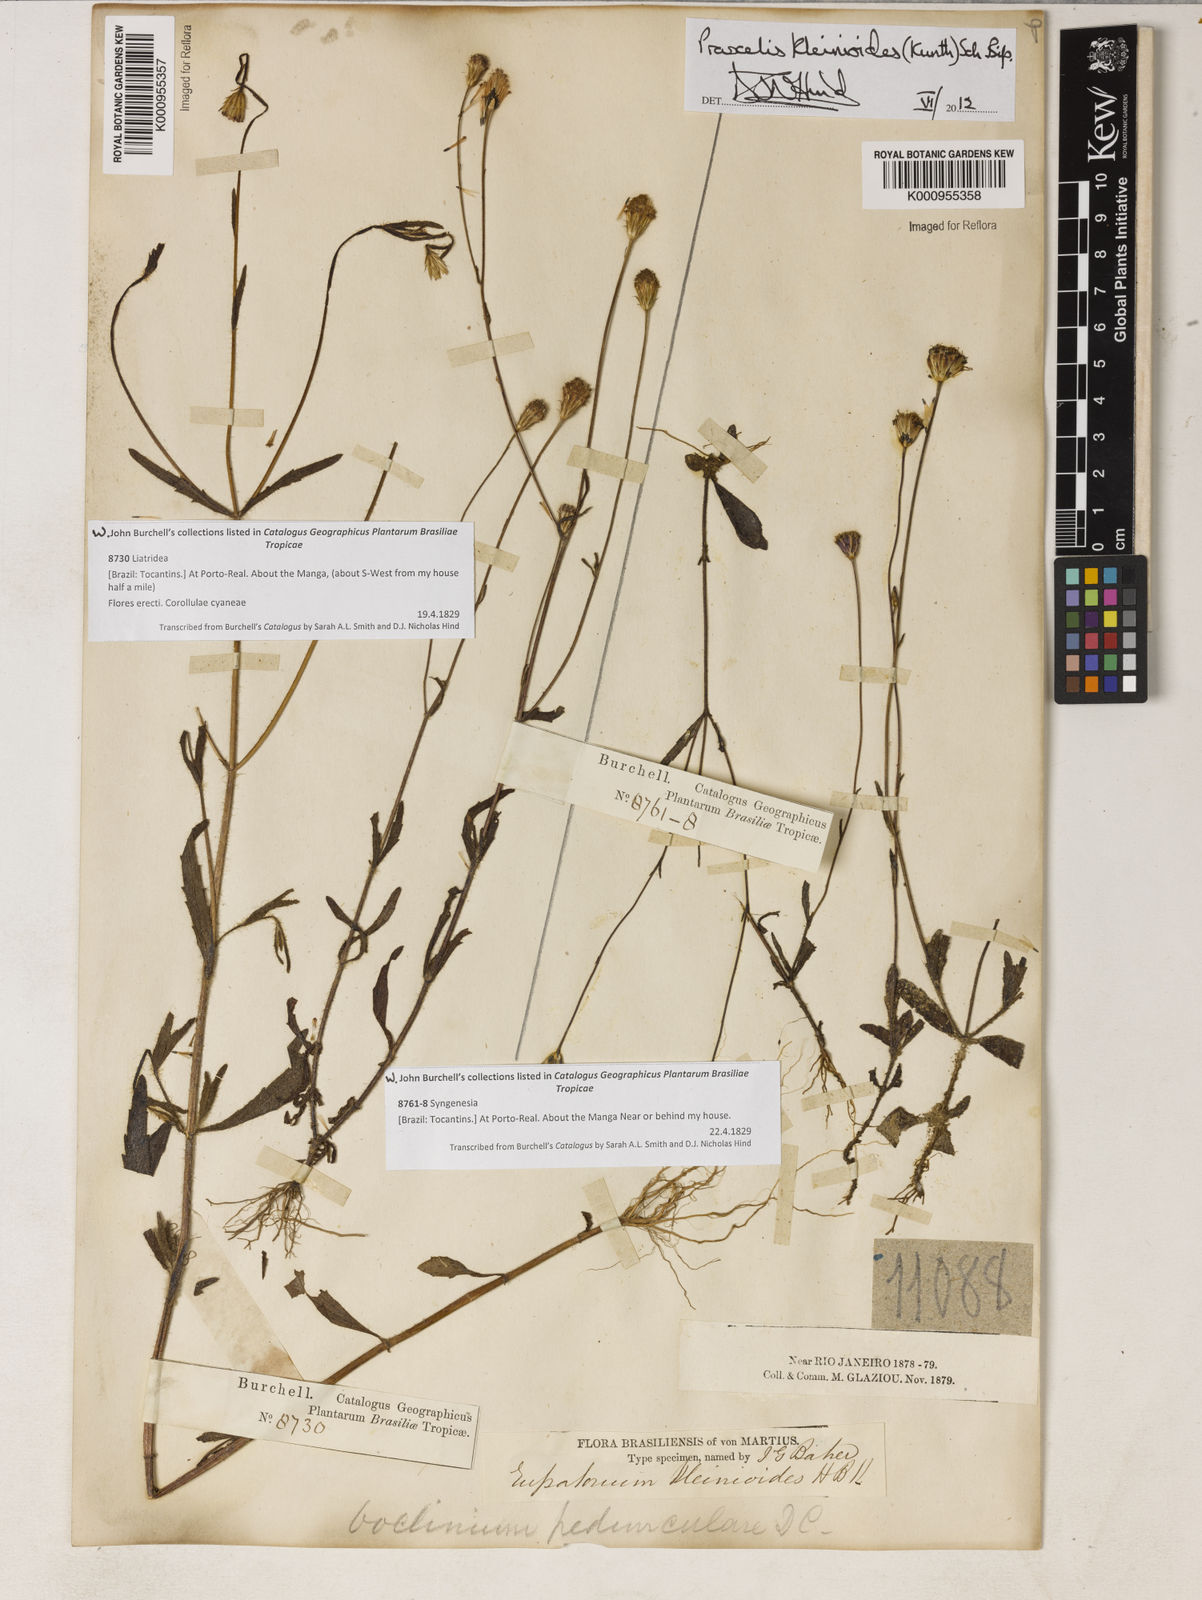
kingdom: Plantae
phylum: Tracheophyta
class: Magnoliopsida
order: Asterales
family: Asteraceae
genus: Praxelis
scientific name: Praxelis kleinioides
